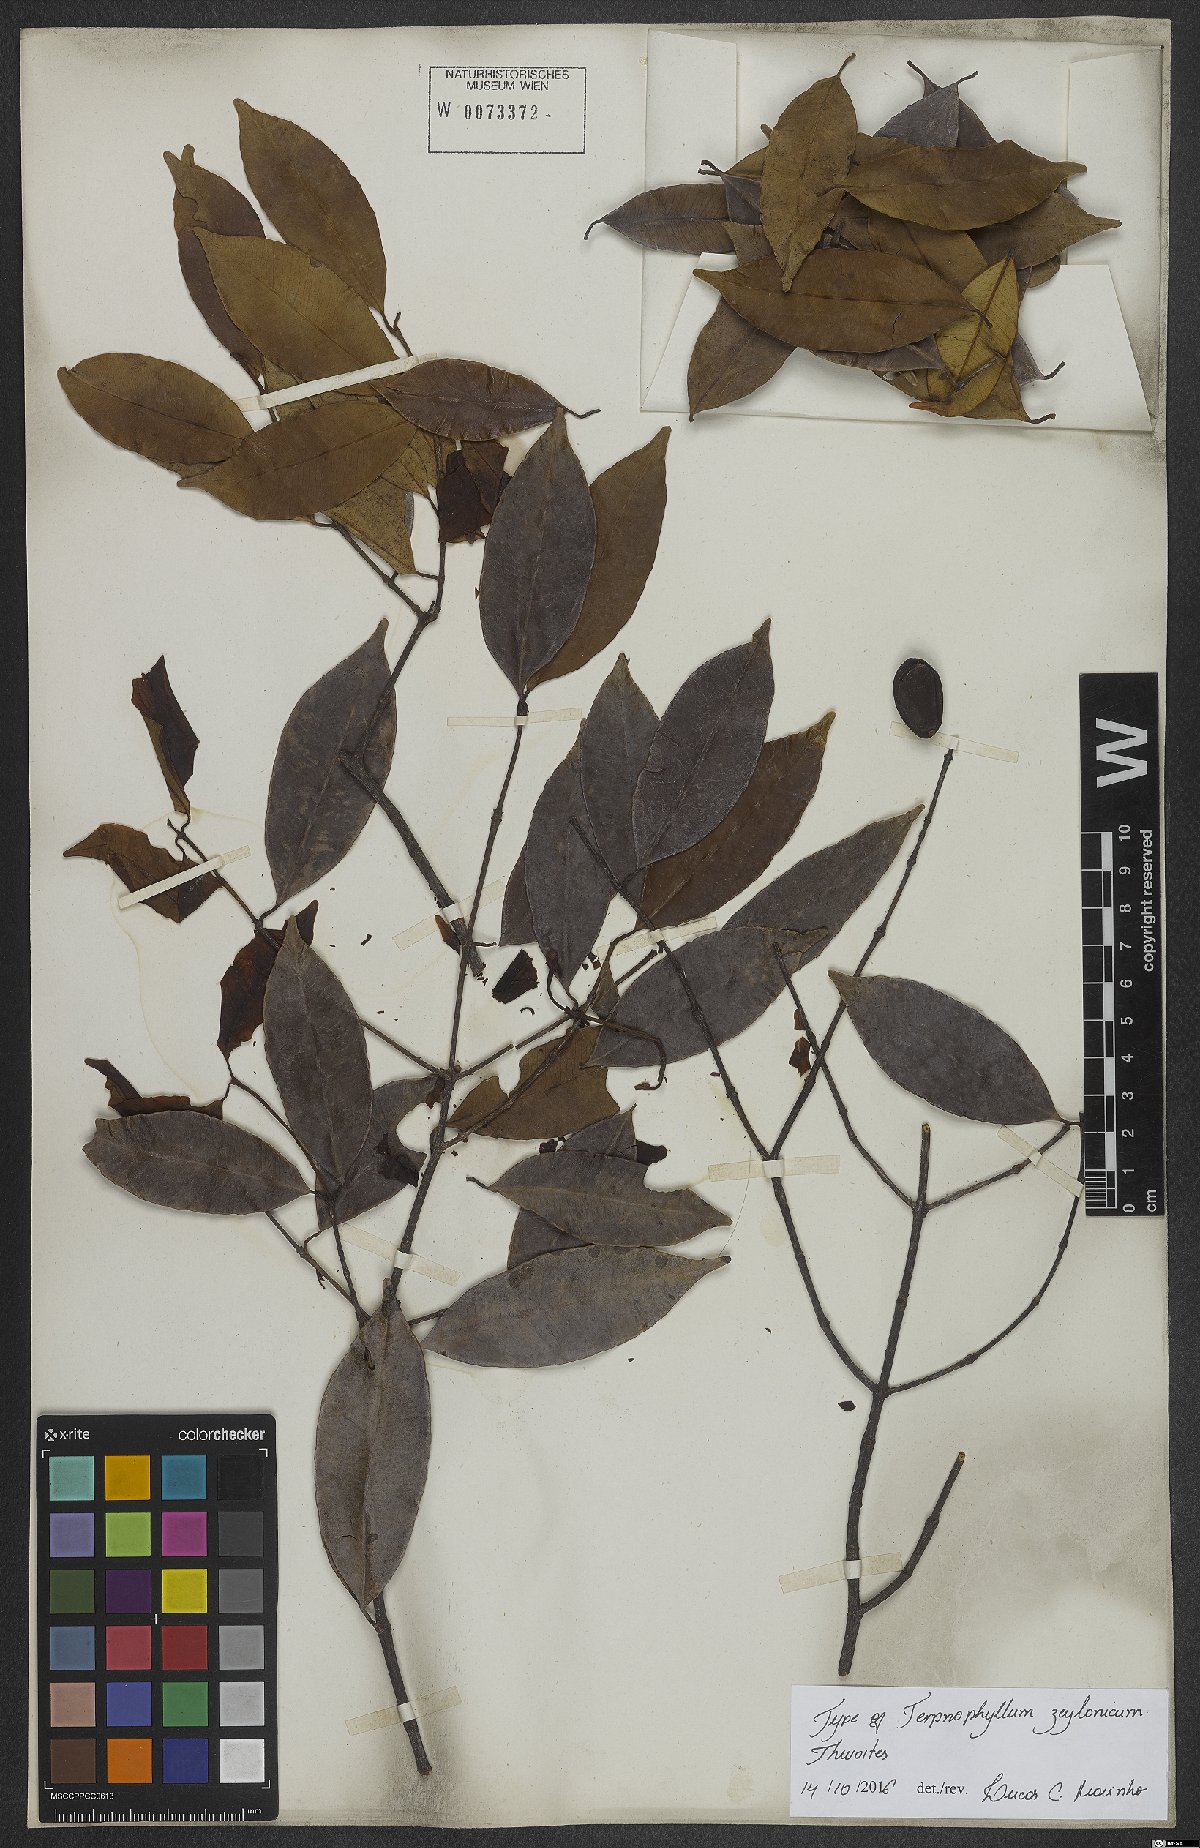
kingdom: Plantae
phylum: Tracheophyta
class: Magnoliopsida
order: Malpighiales
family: Clusiaceae
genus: Garcinia
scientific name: Garcinia terpnophylla
